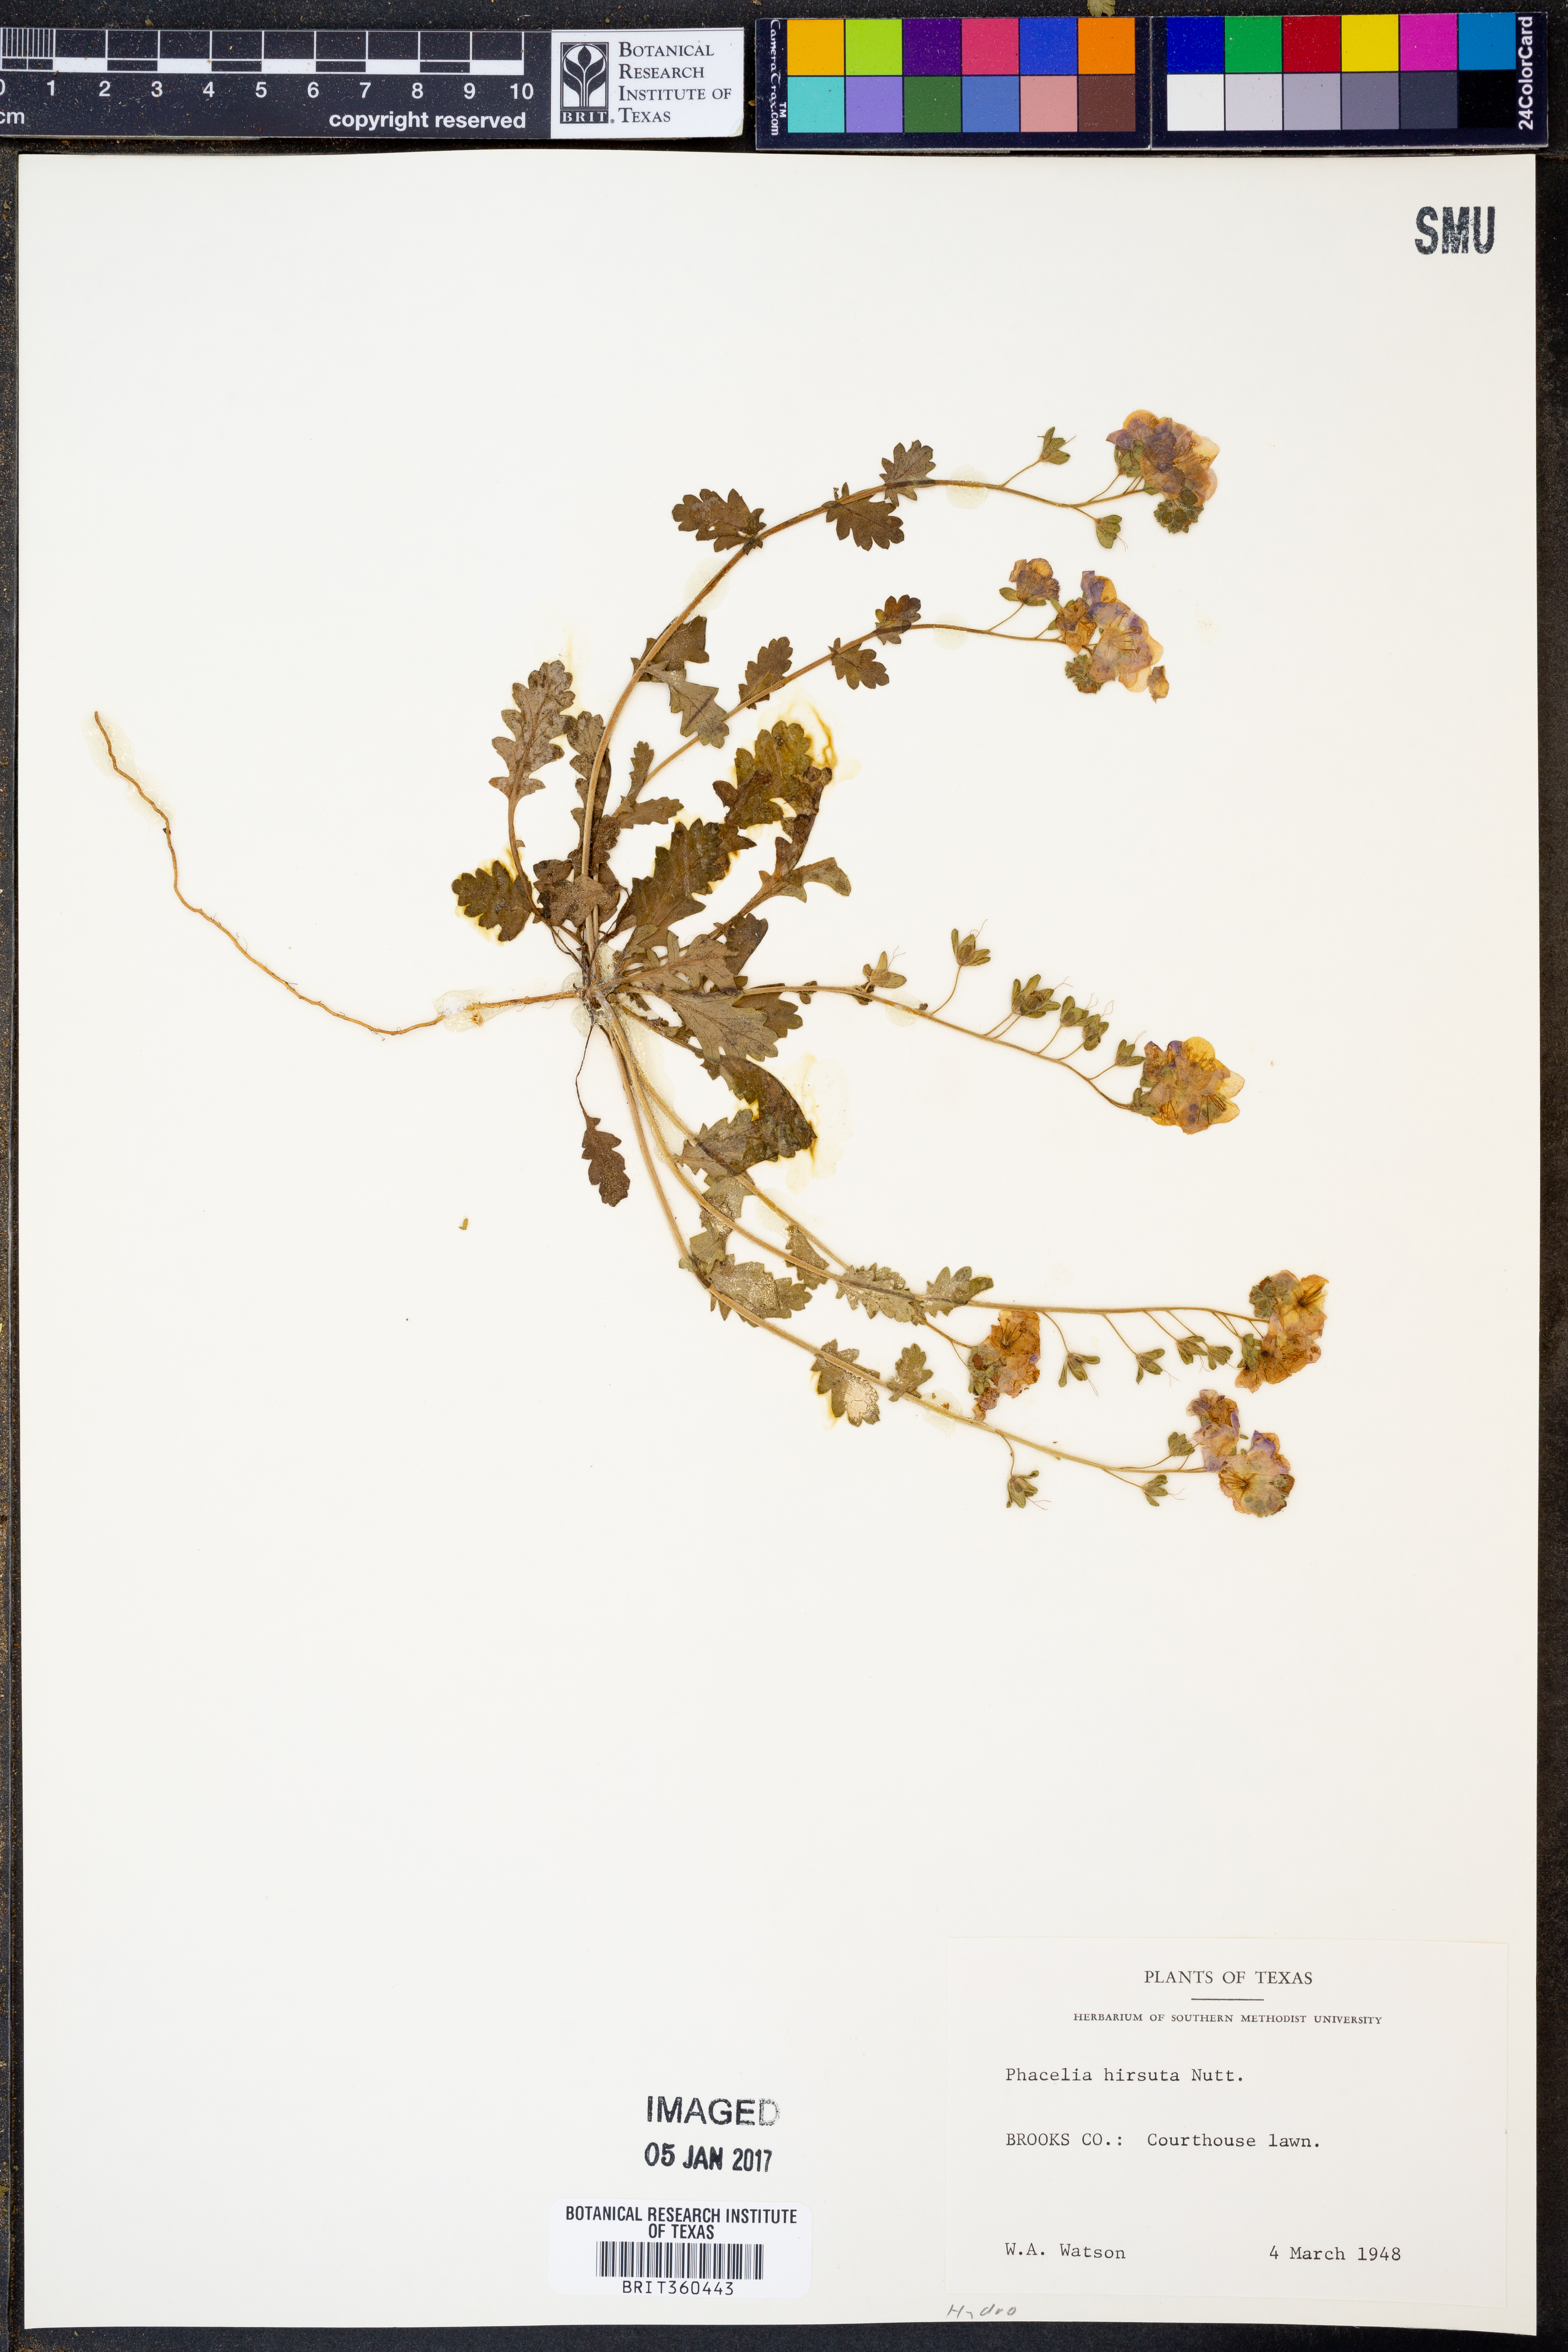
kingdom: Plantae
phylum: Tracheophyta
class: Magnoliopsida
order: Boraginales
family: Hydrophyllaceae
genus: Phacelia
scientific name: Phacelia hirsuta
